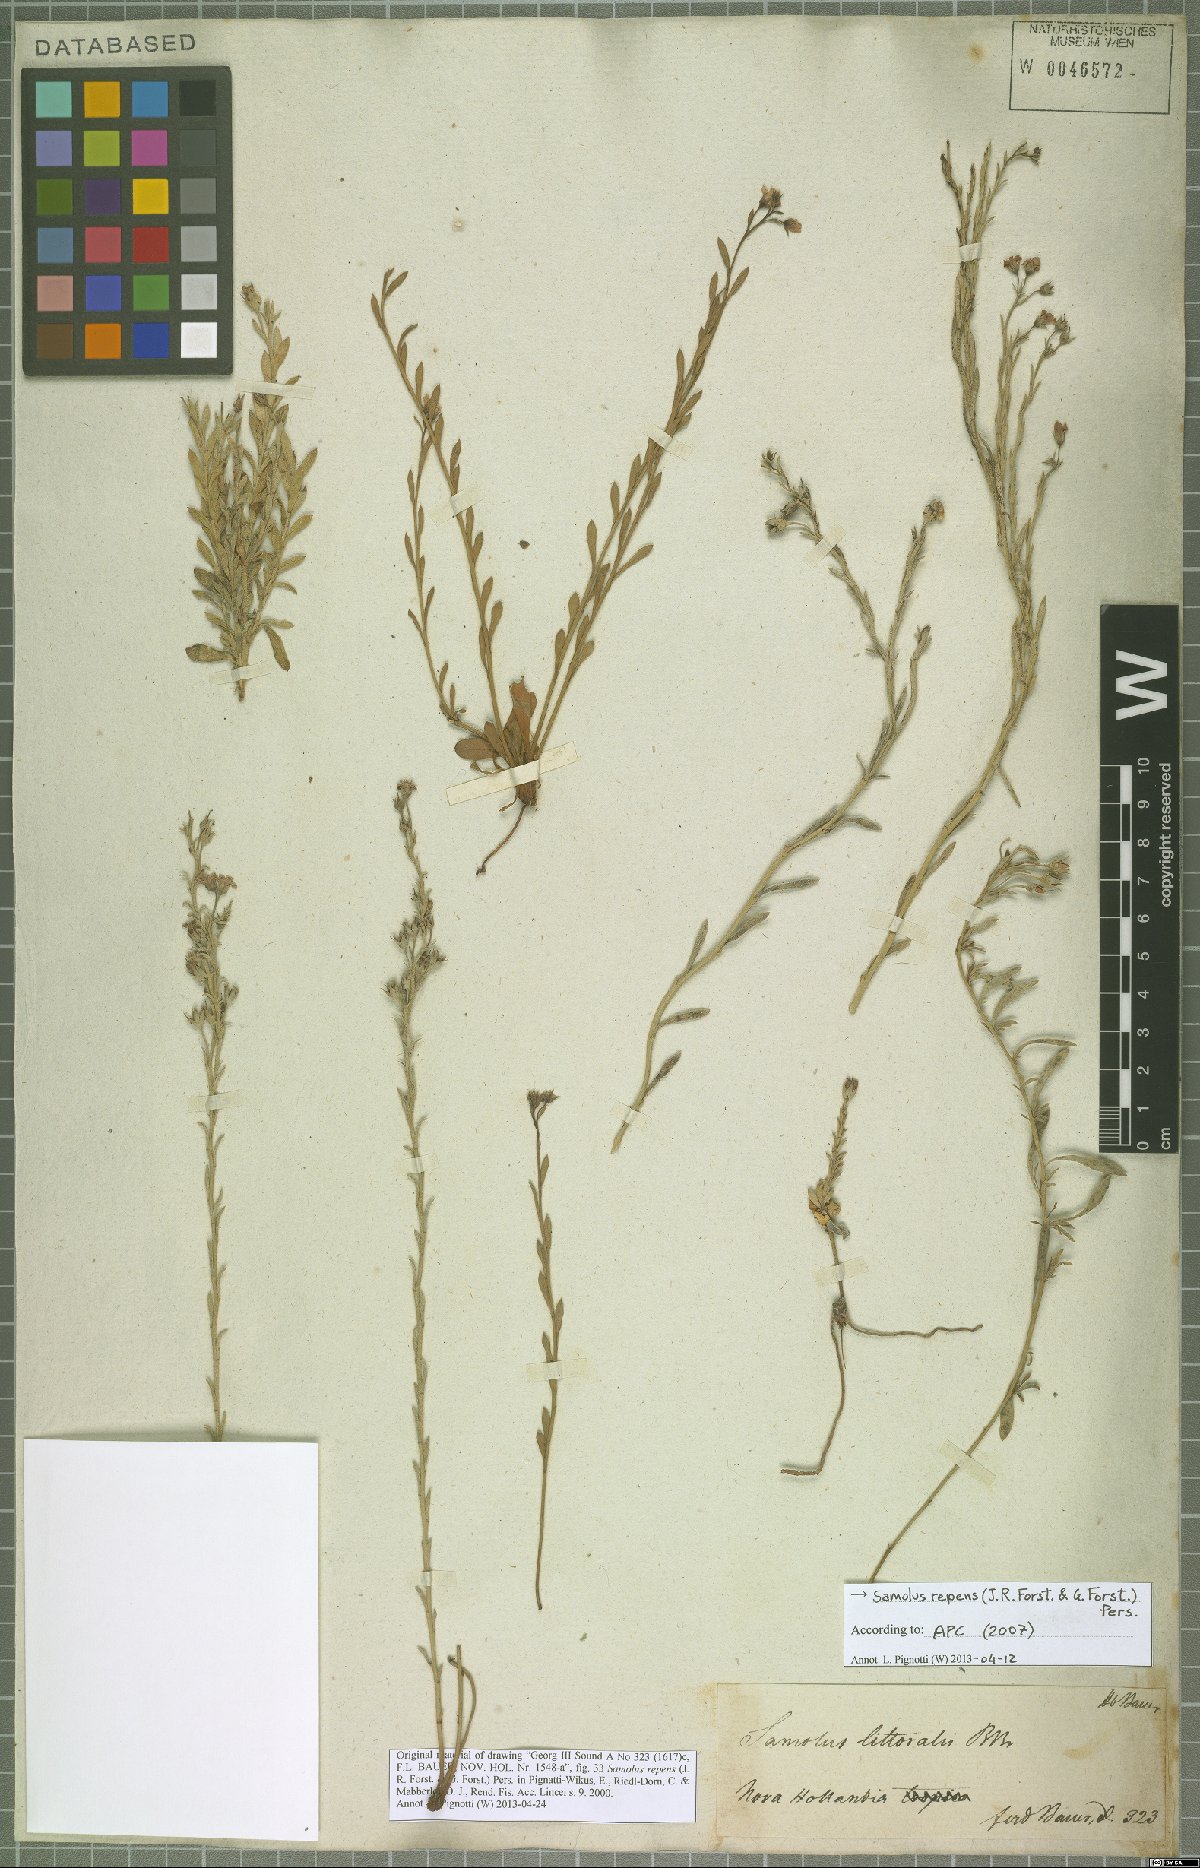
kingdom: Plantae
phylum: Tracheophyta
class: Magnoliopsida
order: Ericales
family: Primulaceae
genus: Samolus
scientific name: Samolus repens
